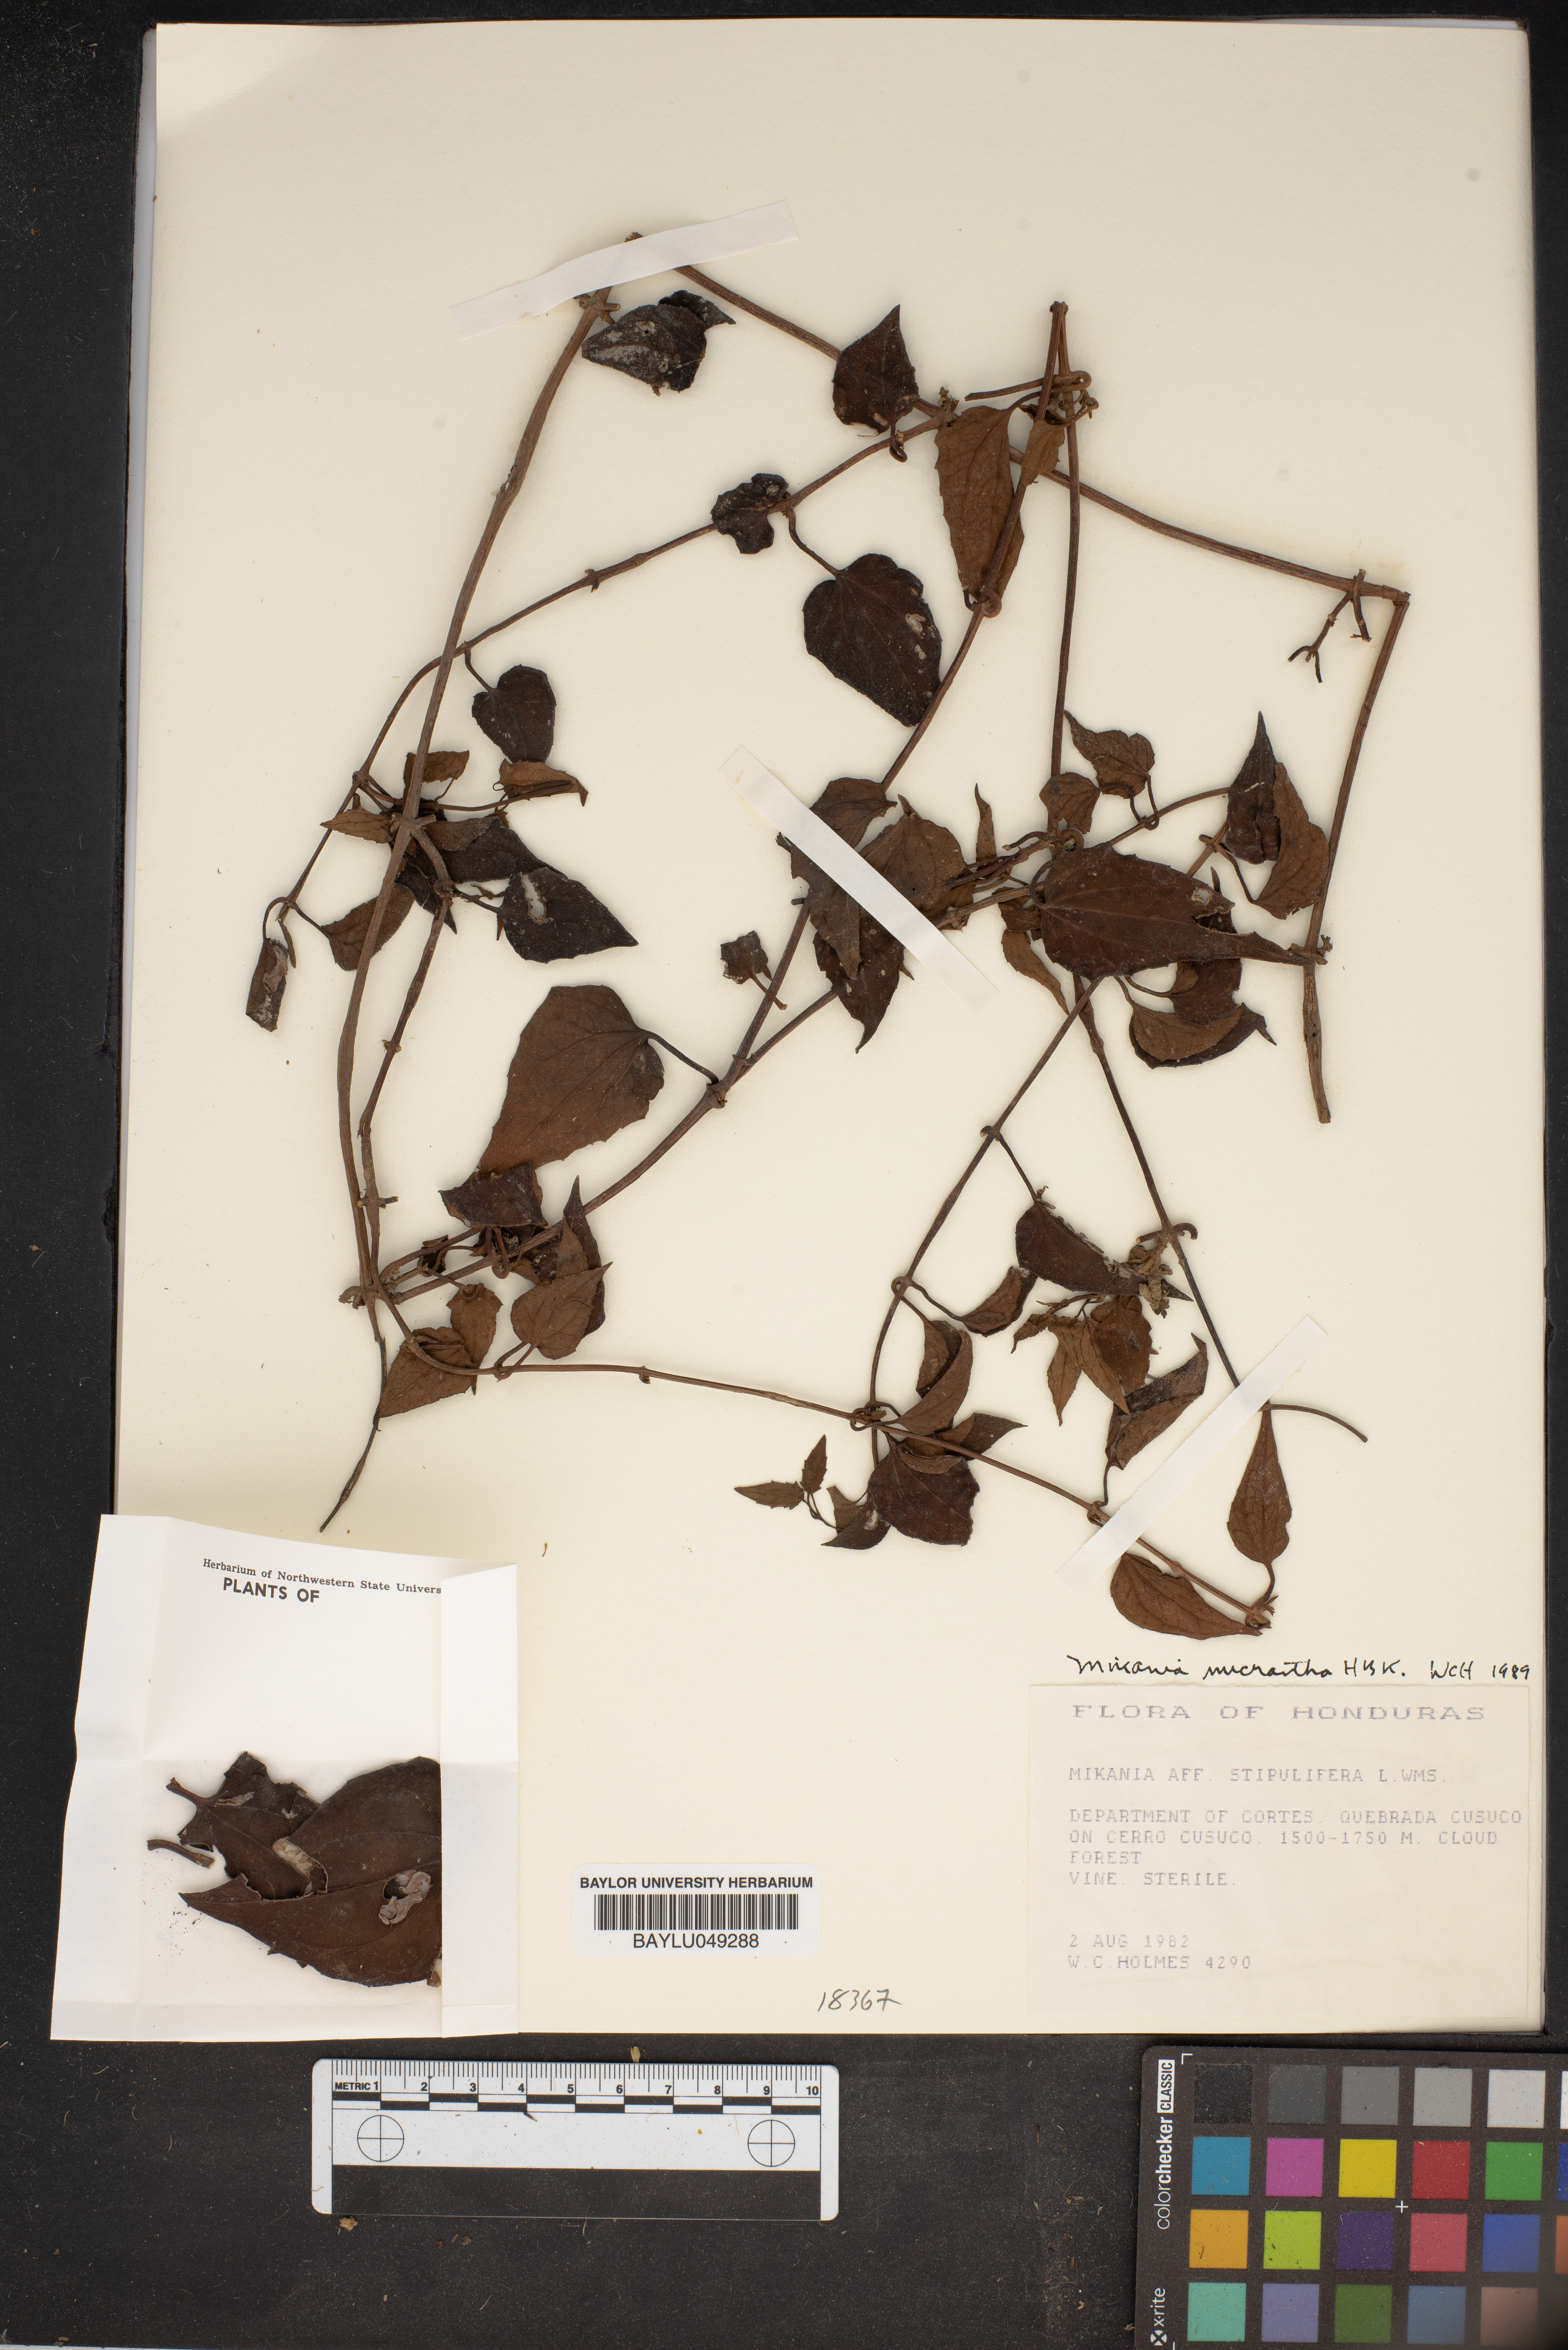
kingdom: Plantae
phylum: Tracheophyta
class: Magnoliopsida
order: Asterales
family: Asteraceae
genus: Mikania
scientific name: Mikania stipulifera
